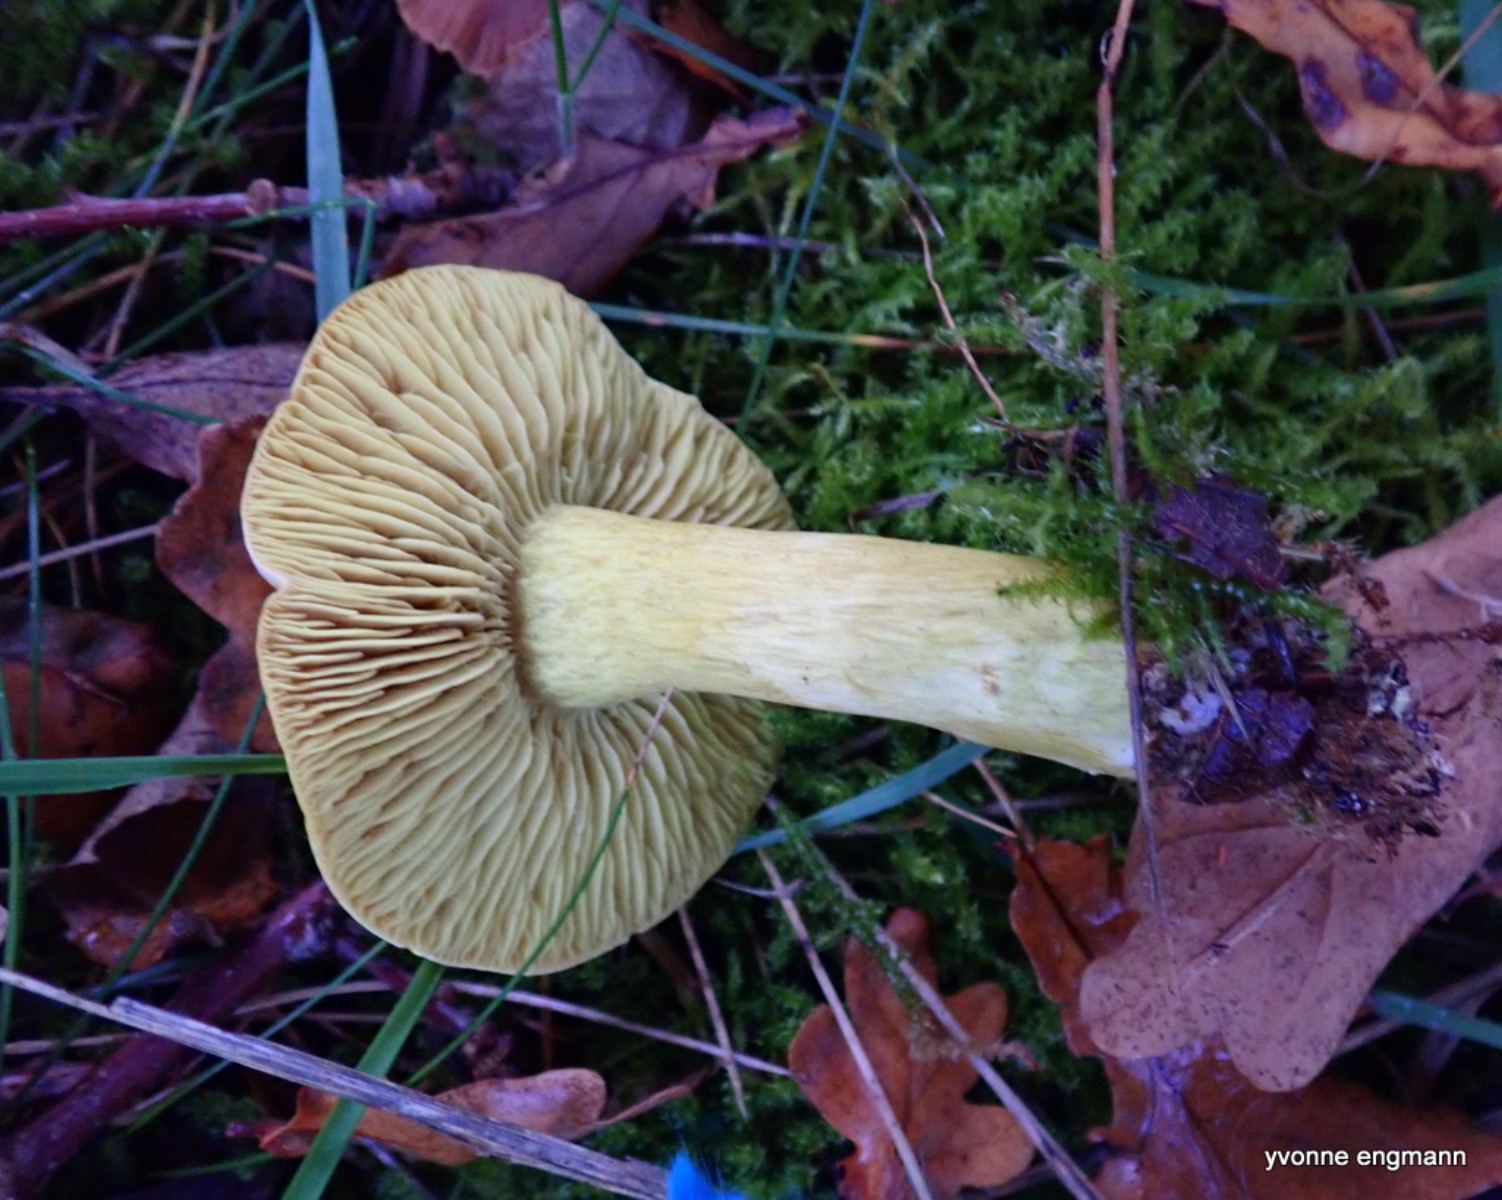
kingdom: Fungi
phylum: Basidiomycota
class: Agaricomycetes
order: Agaricales
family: Tricholomataceae
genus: Tricholoma
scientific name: Tricholoma sulphureum
